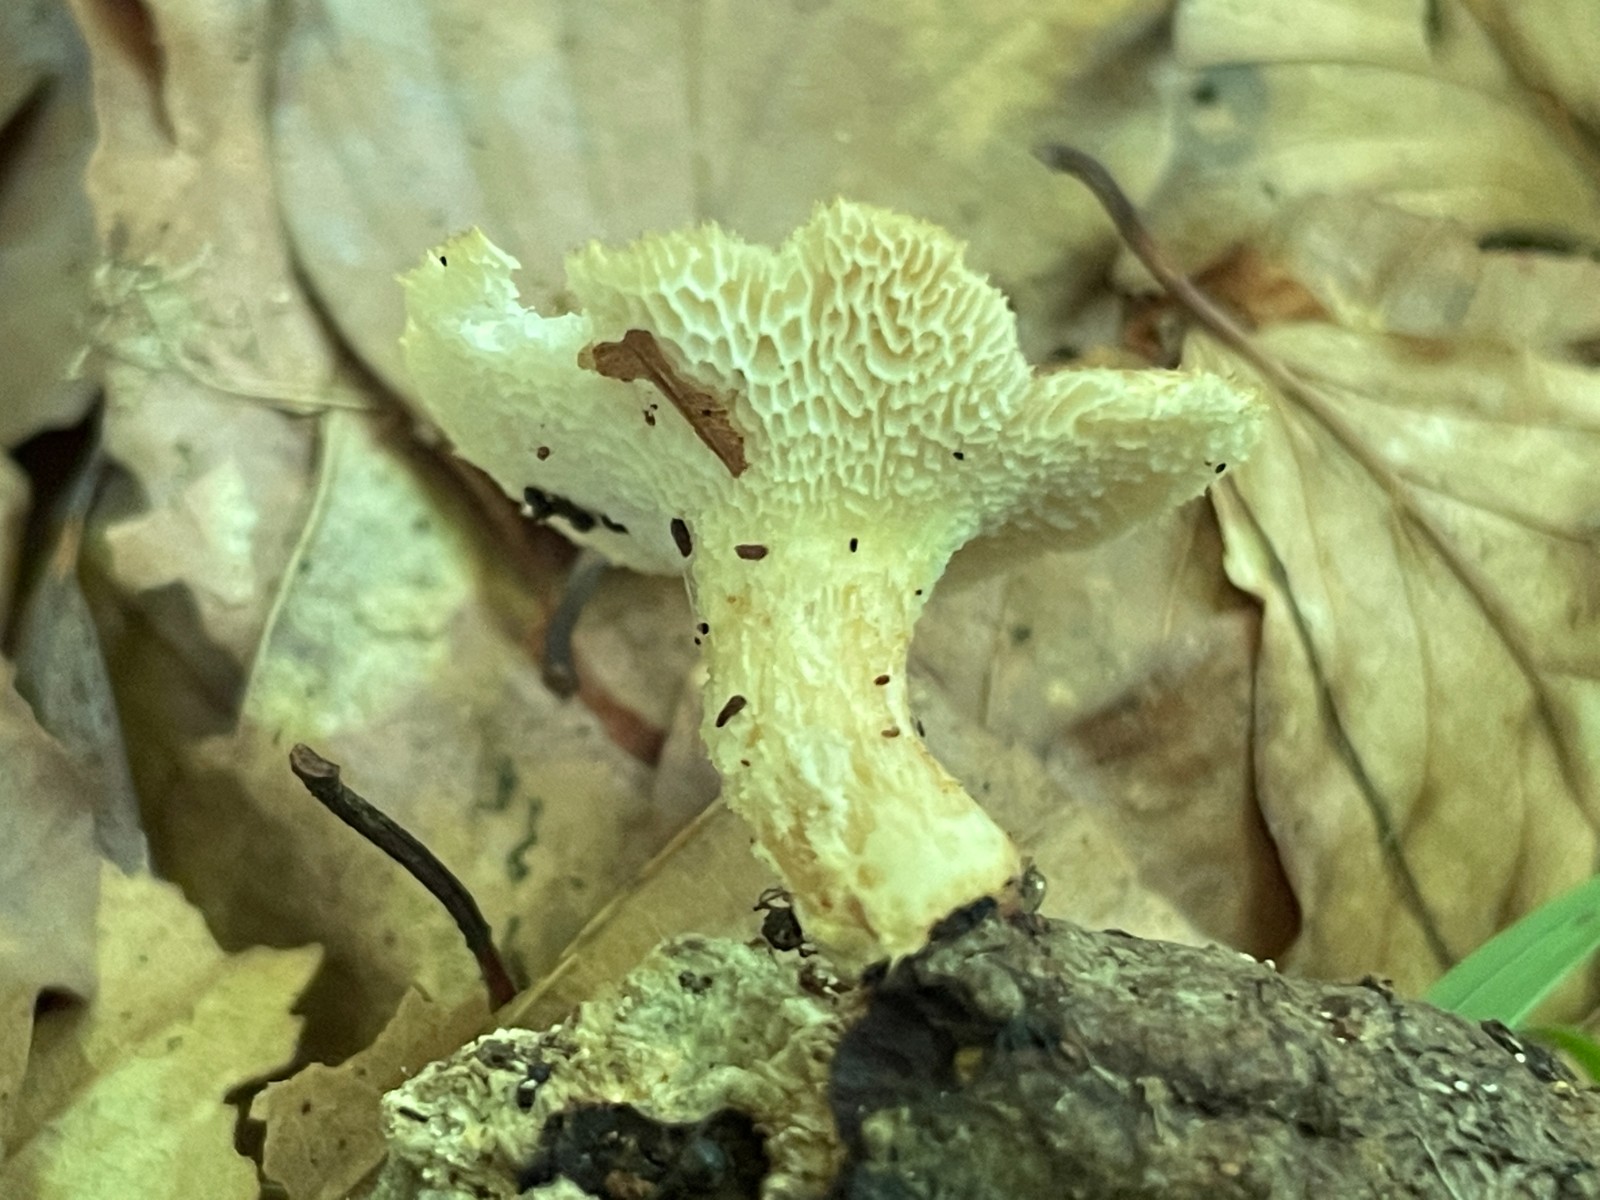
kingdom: Fungi
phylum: Basidiomycota
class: Agaricomycetes
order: Polyporales
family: Polyporaceae
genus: Polyporus
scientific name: Polyporus tuberaster
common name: knoldet stilkporesvamp
